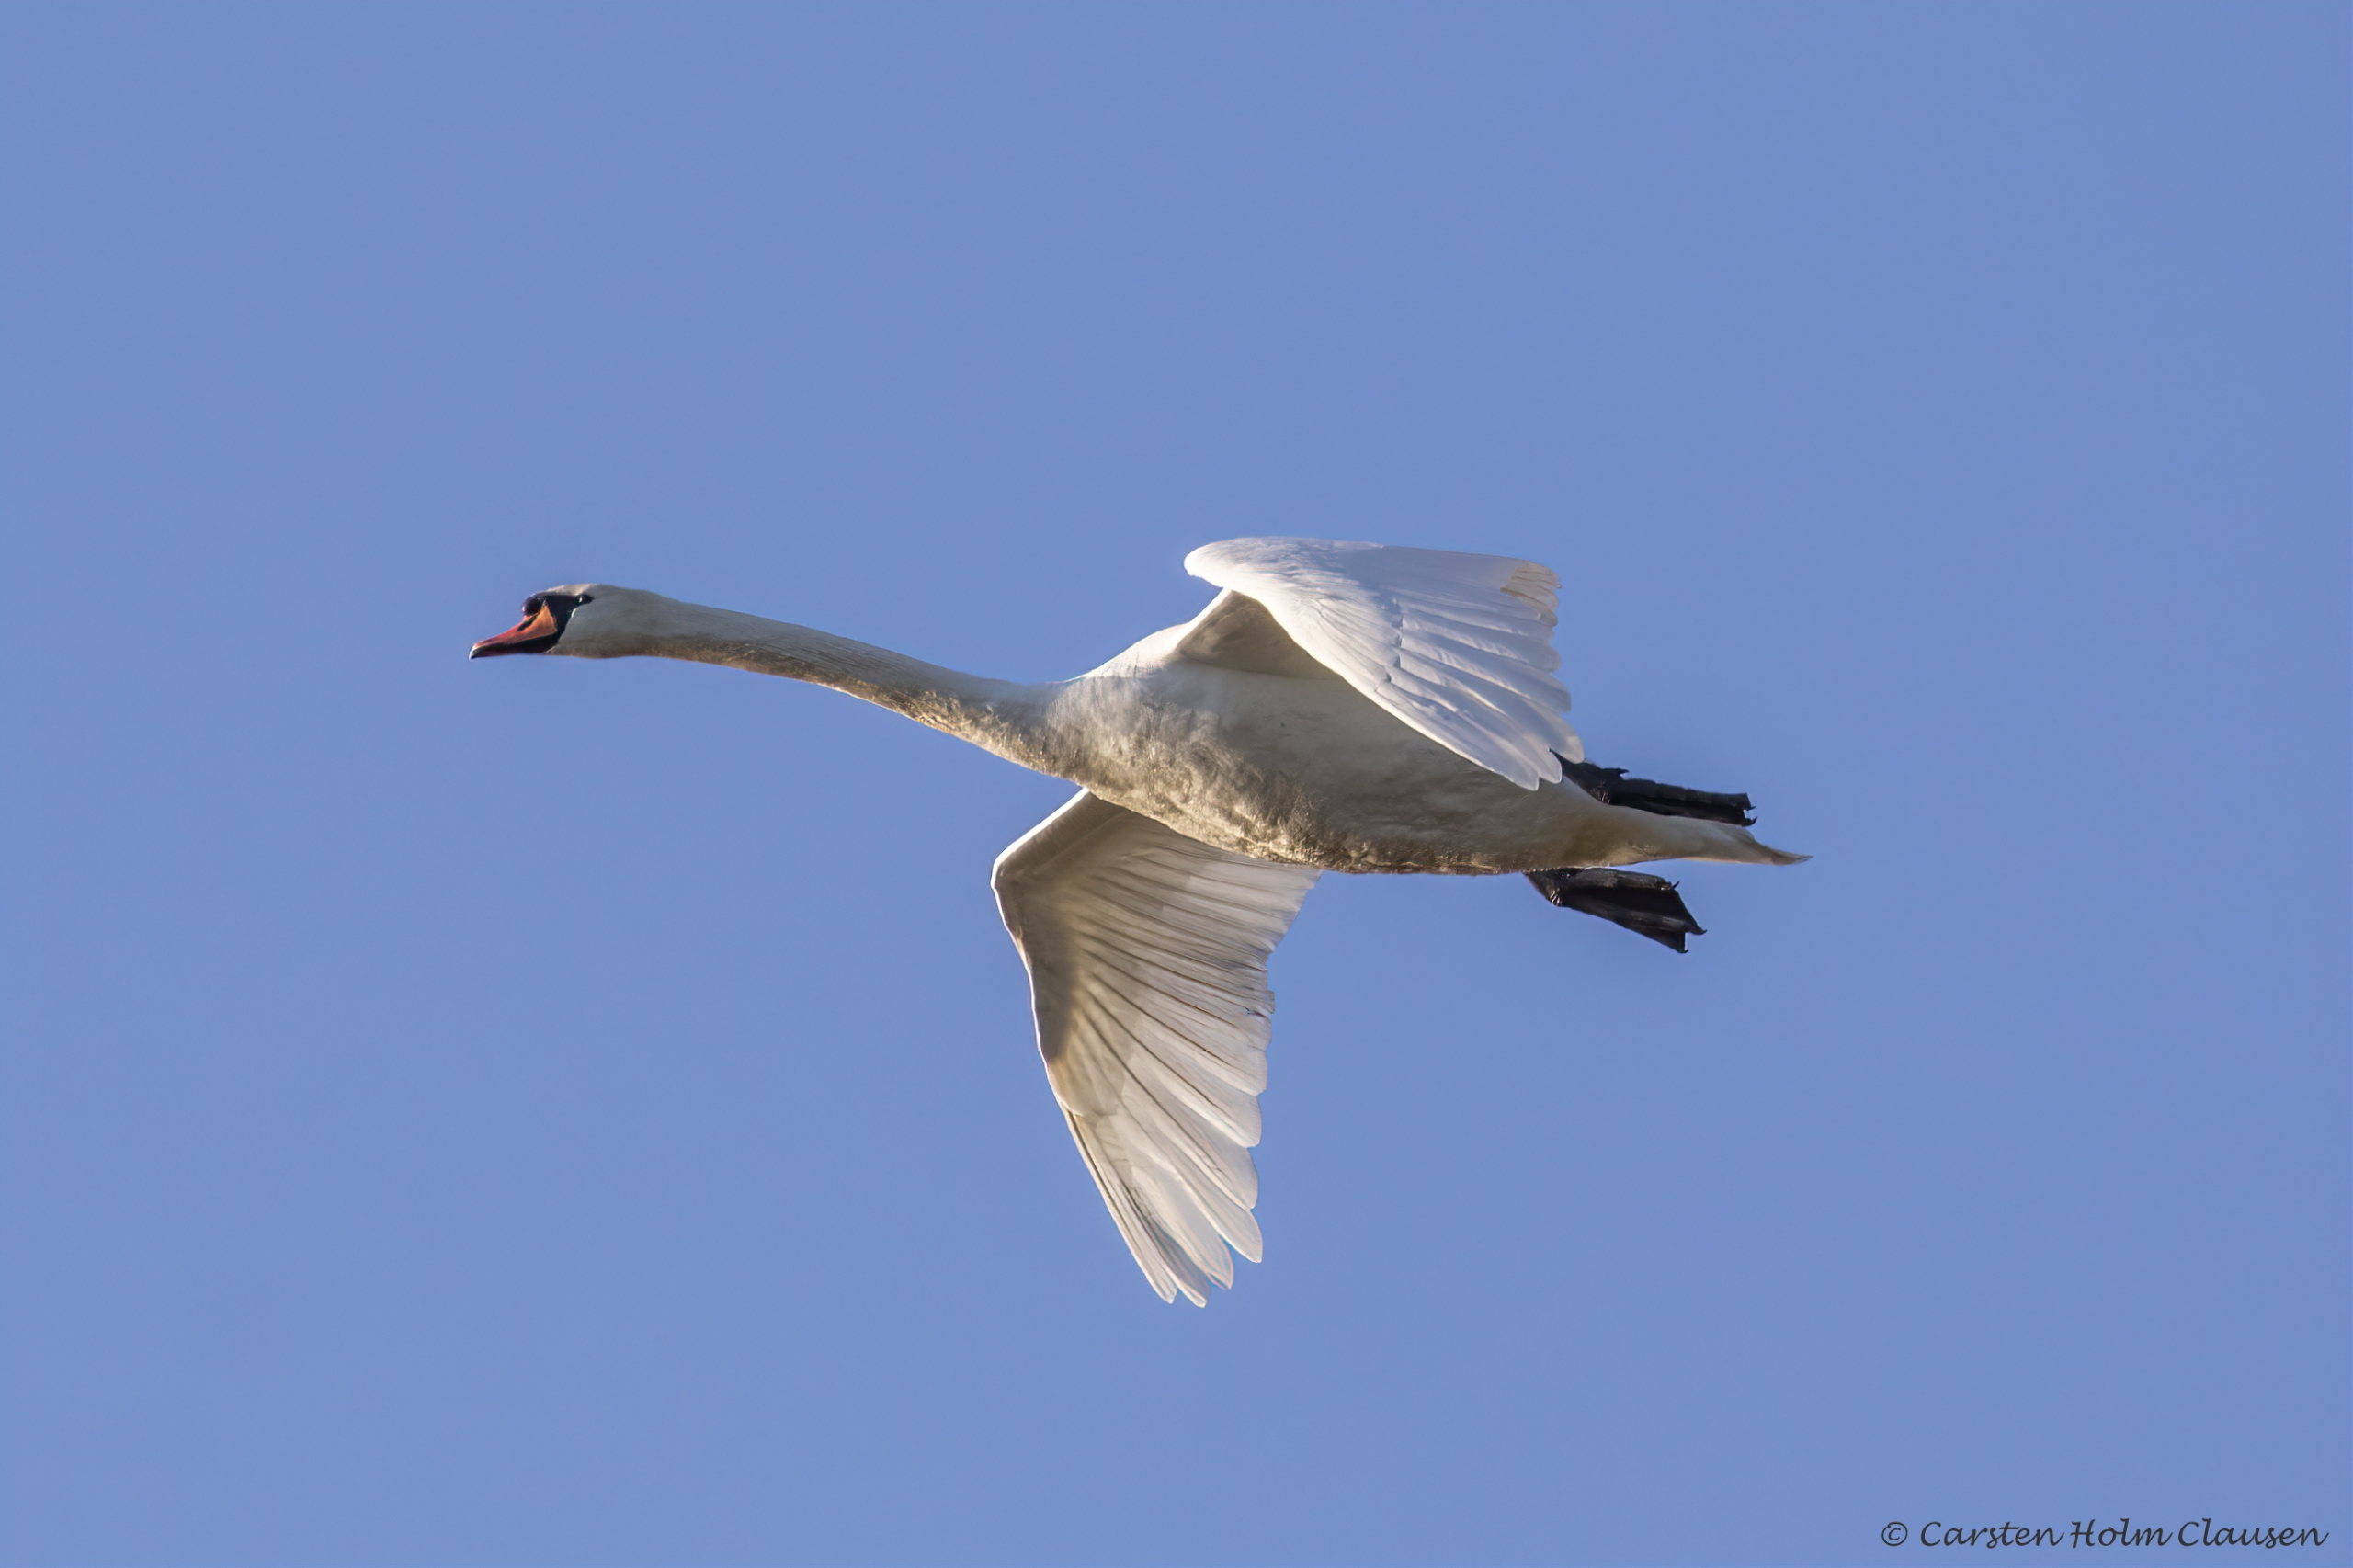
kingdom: Animalia
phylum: Chordata
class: Aves
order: Anseriformes
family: Anatidae
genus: Cygnus
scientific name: Cygnus olor
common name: Knopsvane
